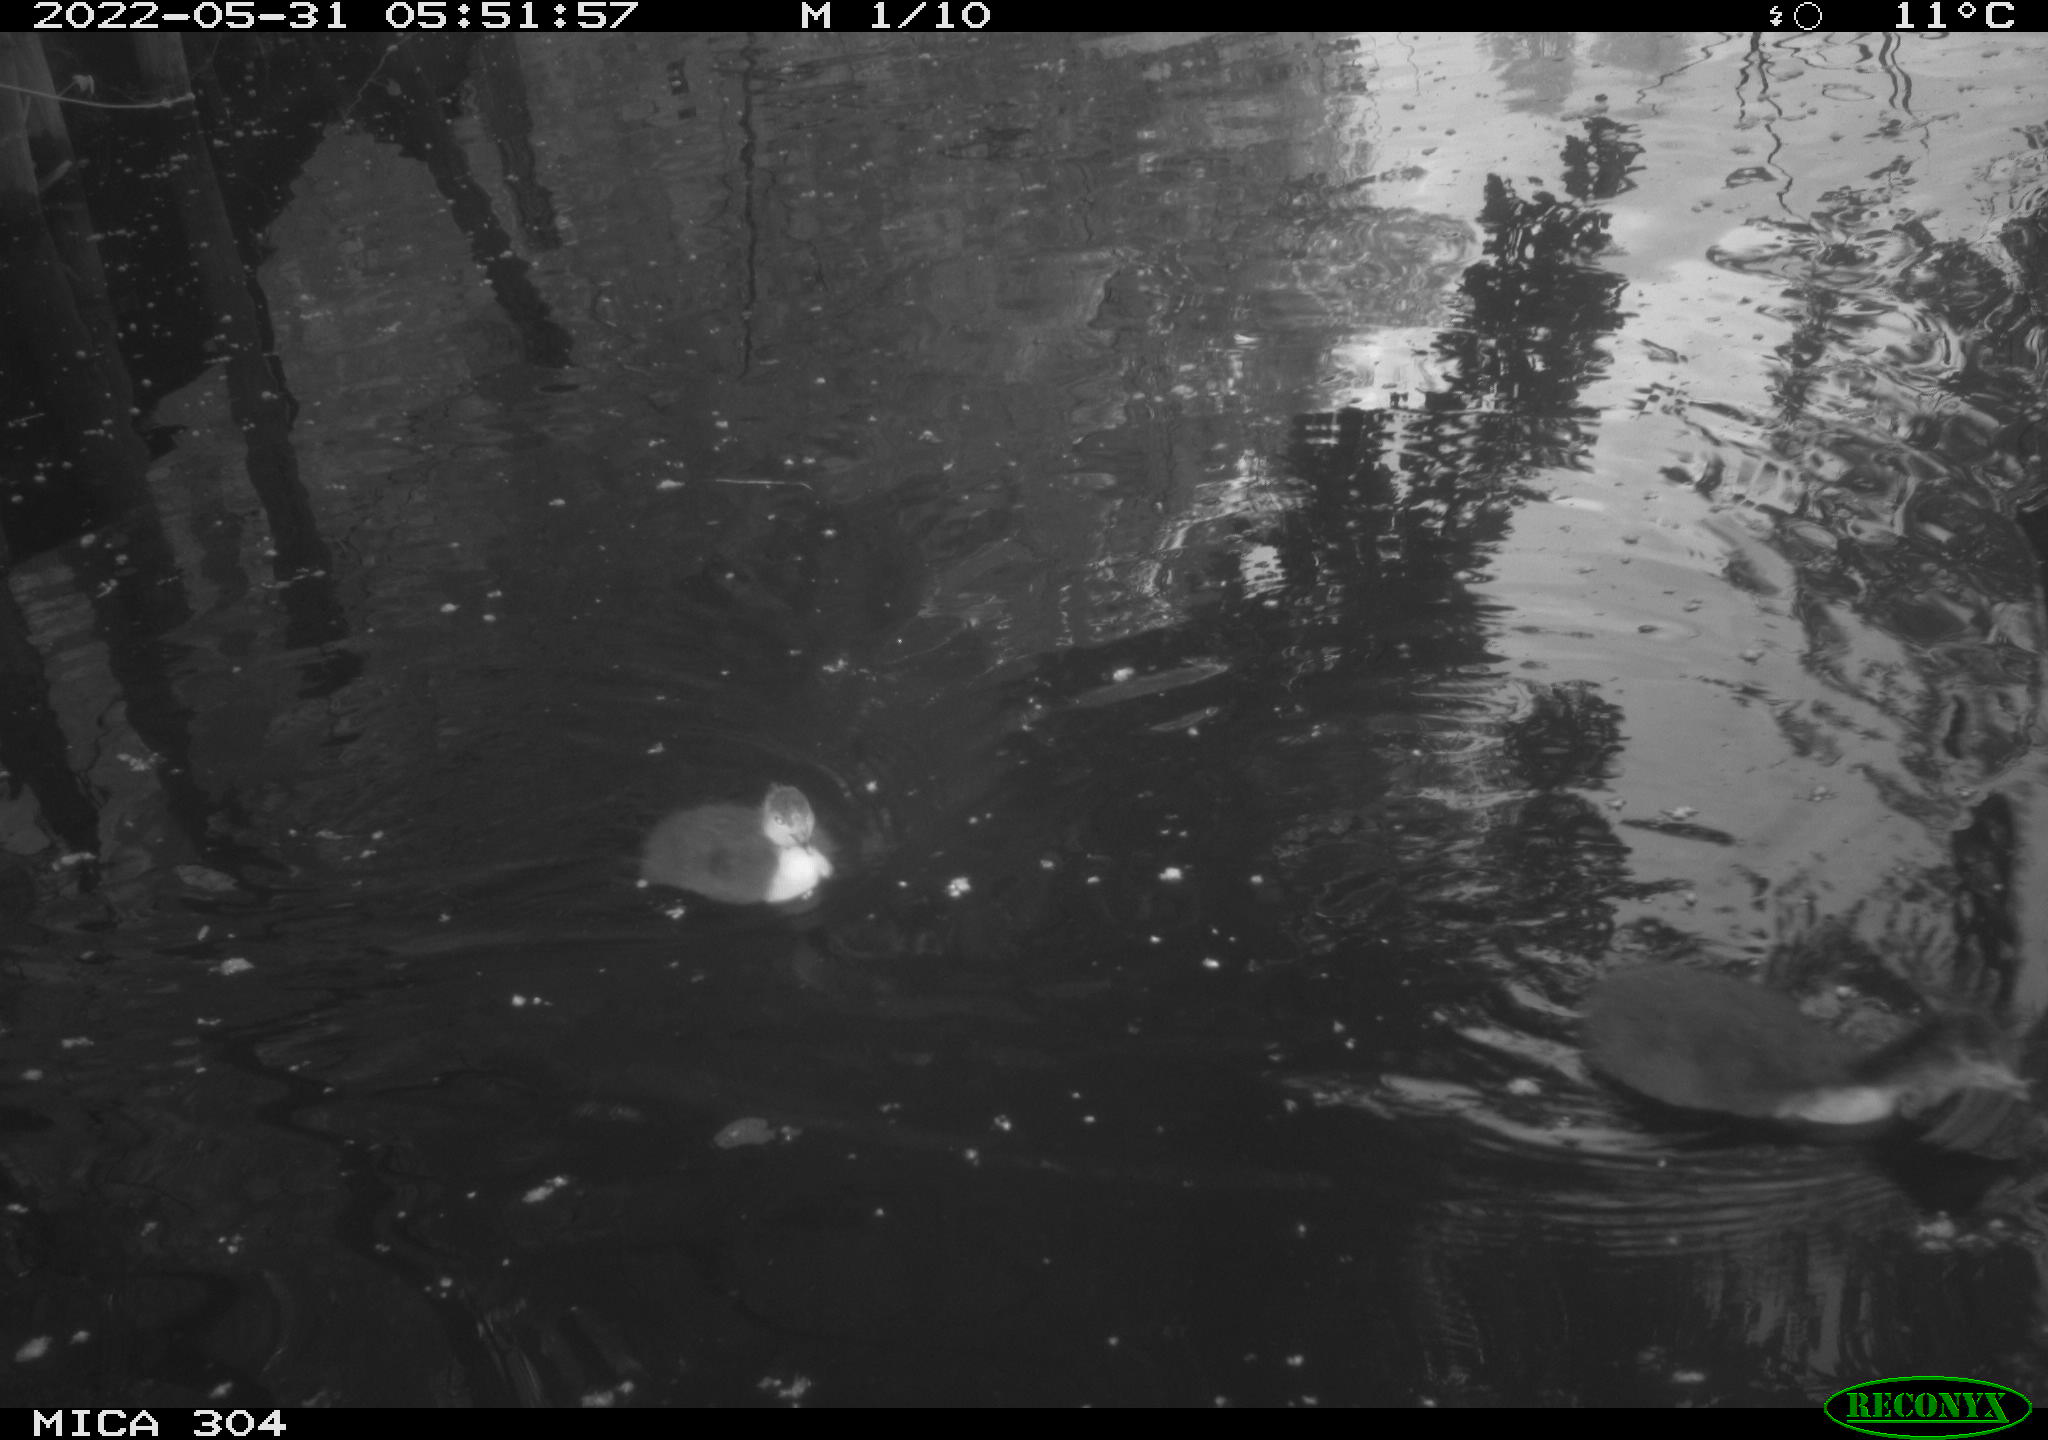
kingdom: Animalia
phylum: Chordata
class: Aves
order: Anseriformes
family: Anatidae
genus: Mareca
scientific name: Mareca strepera
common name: Gadwall
